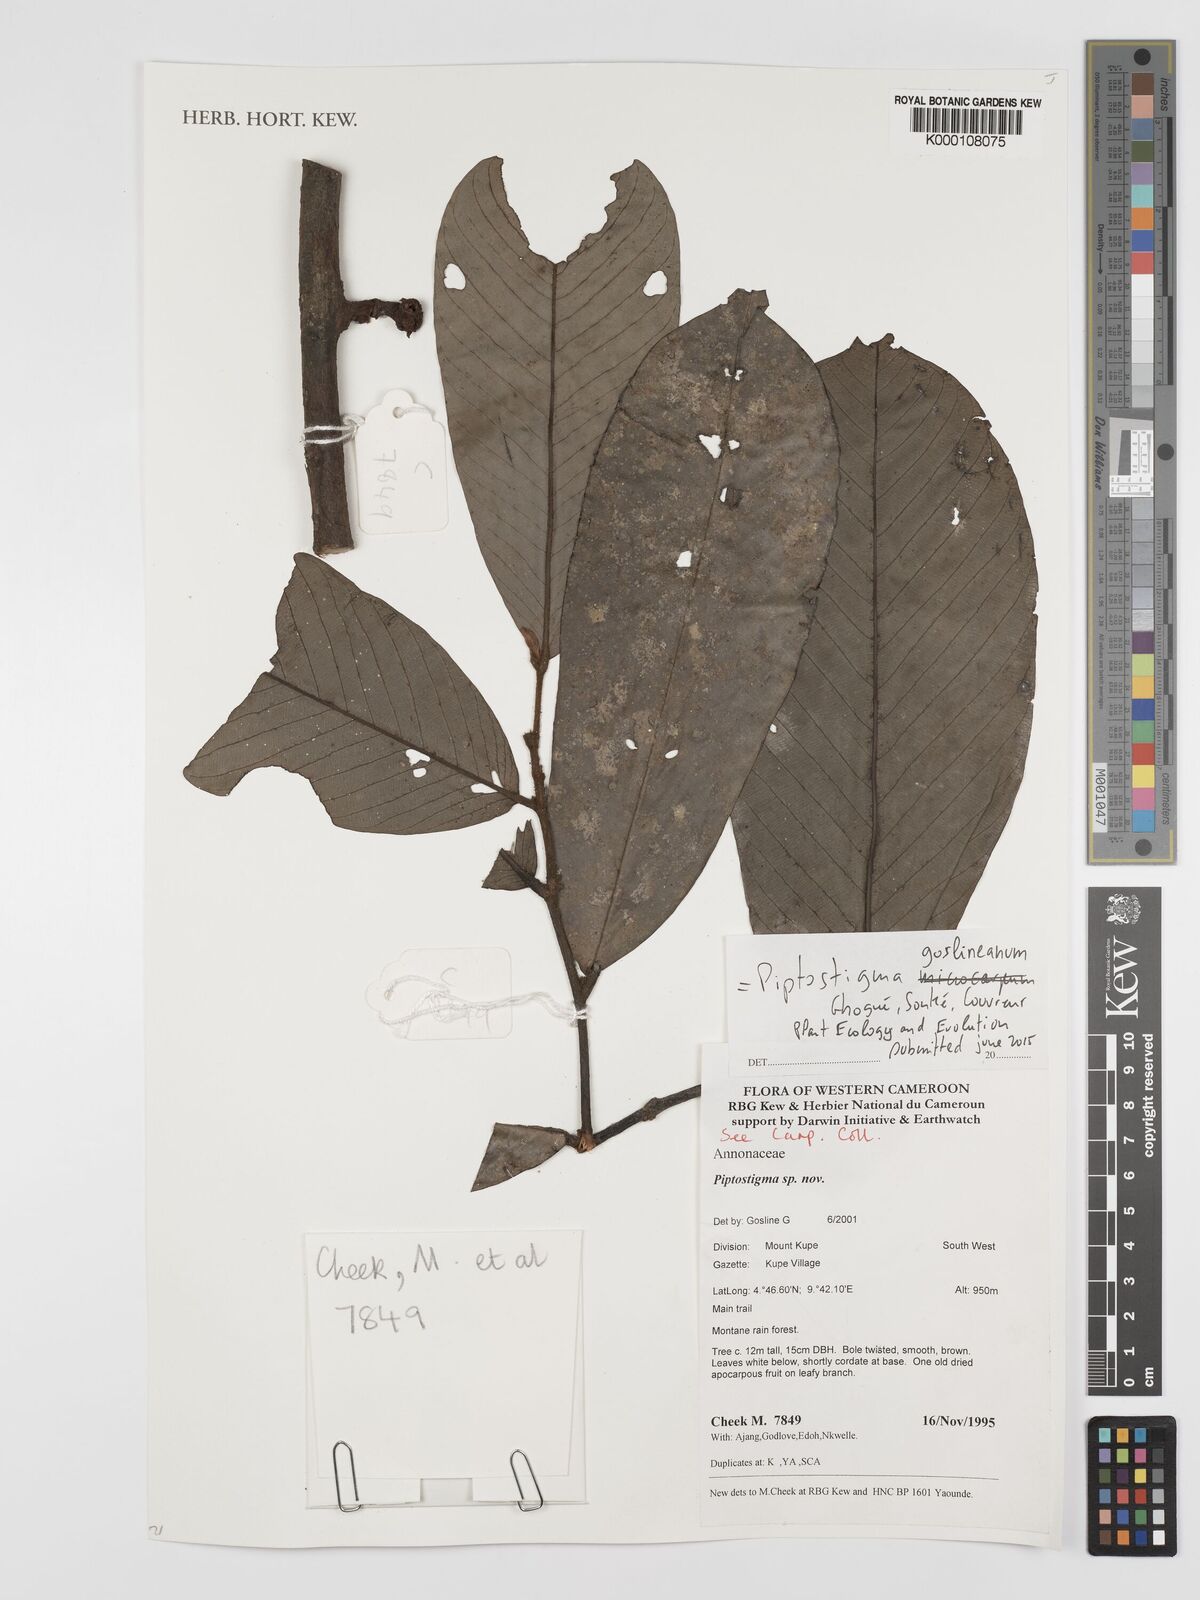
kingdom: Plantae
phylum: Tracheophyta
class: Magnoliopsida
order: Magnoliales
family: Annonaceae
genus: Piptostigma
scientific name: Piptostigma
